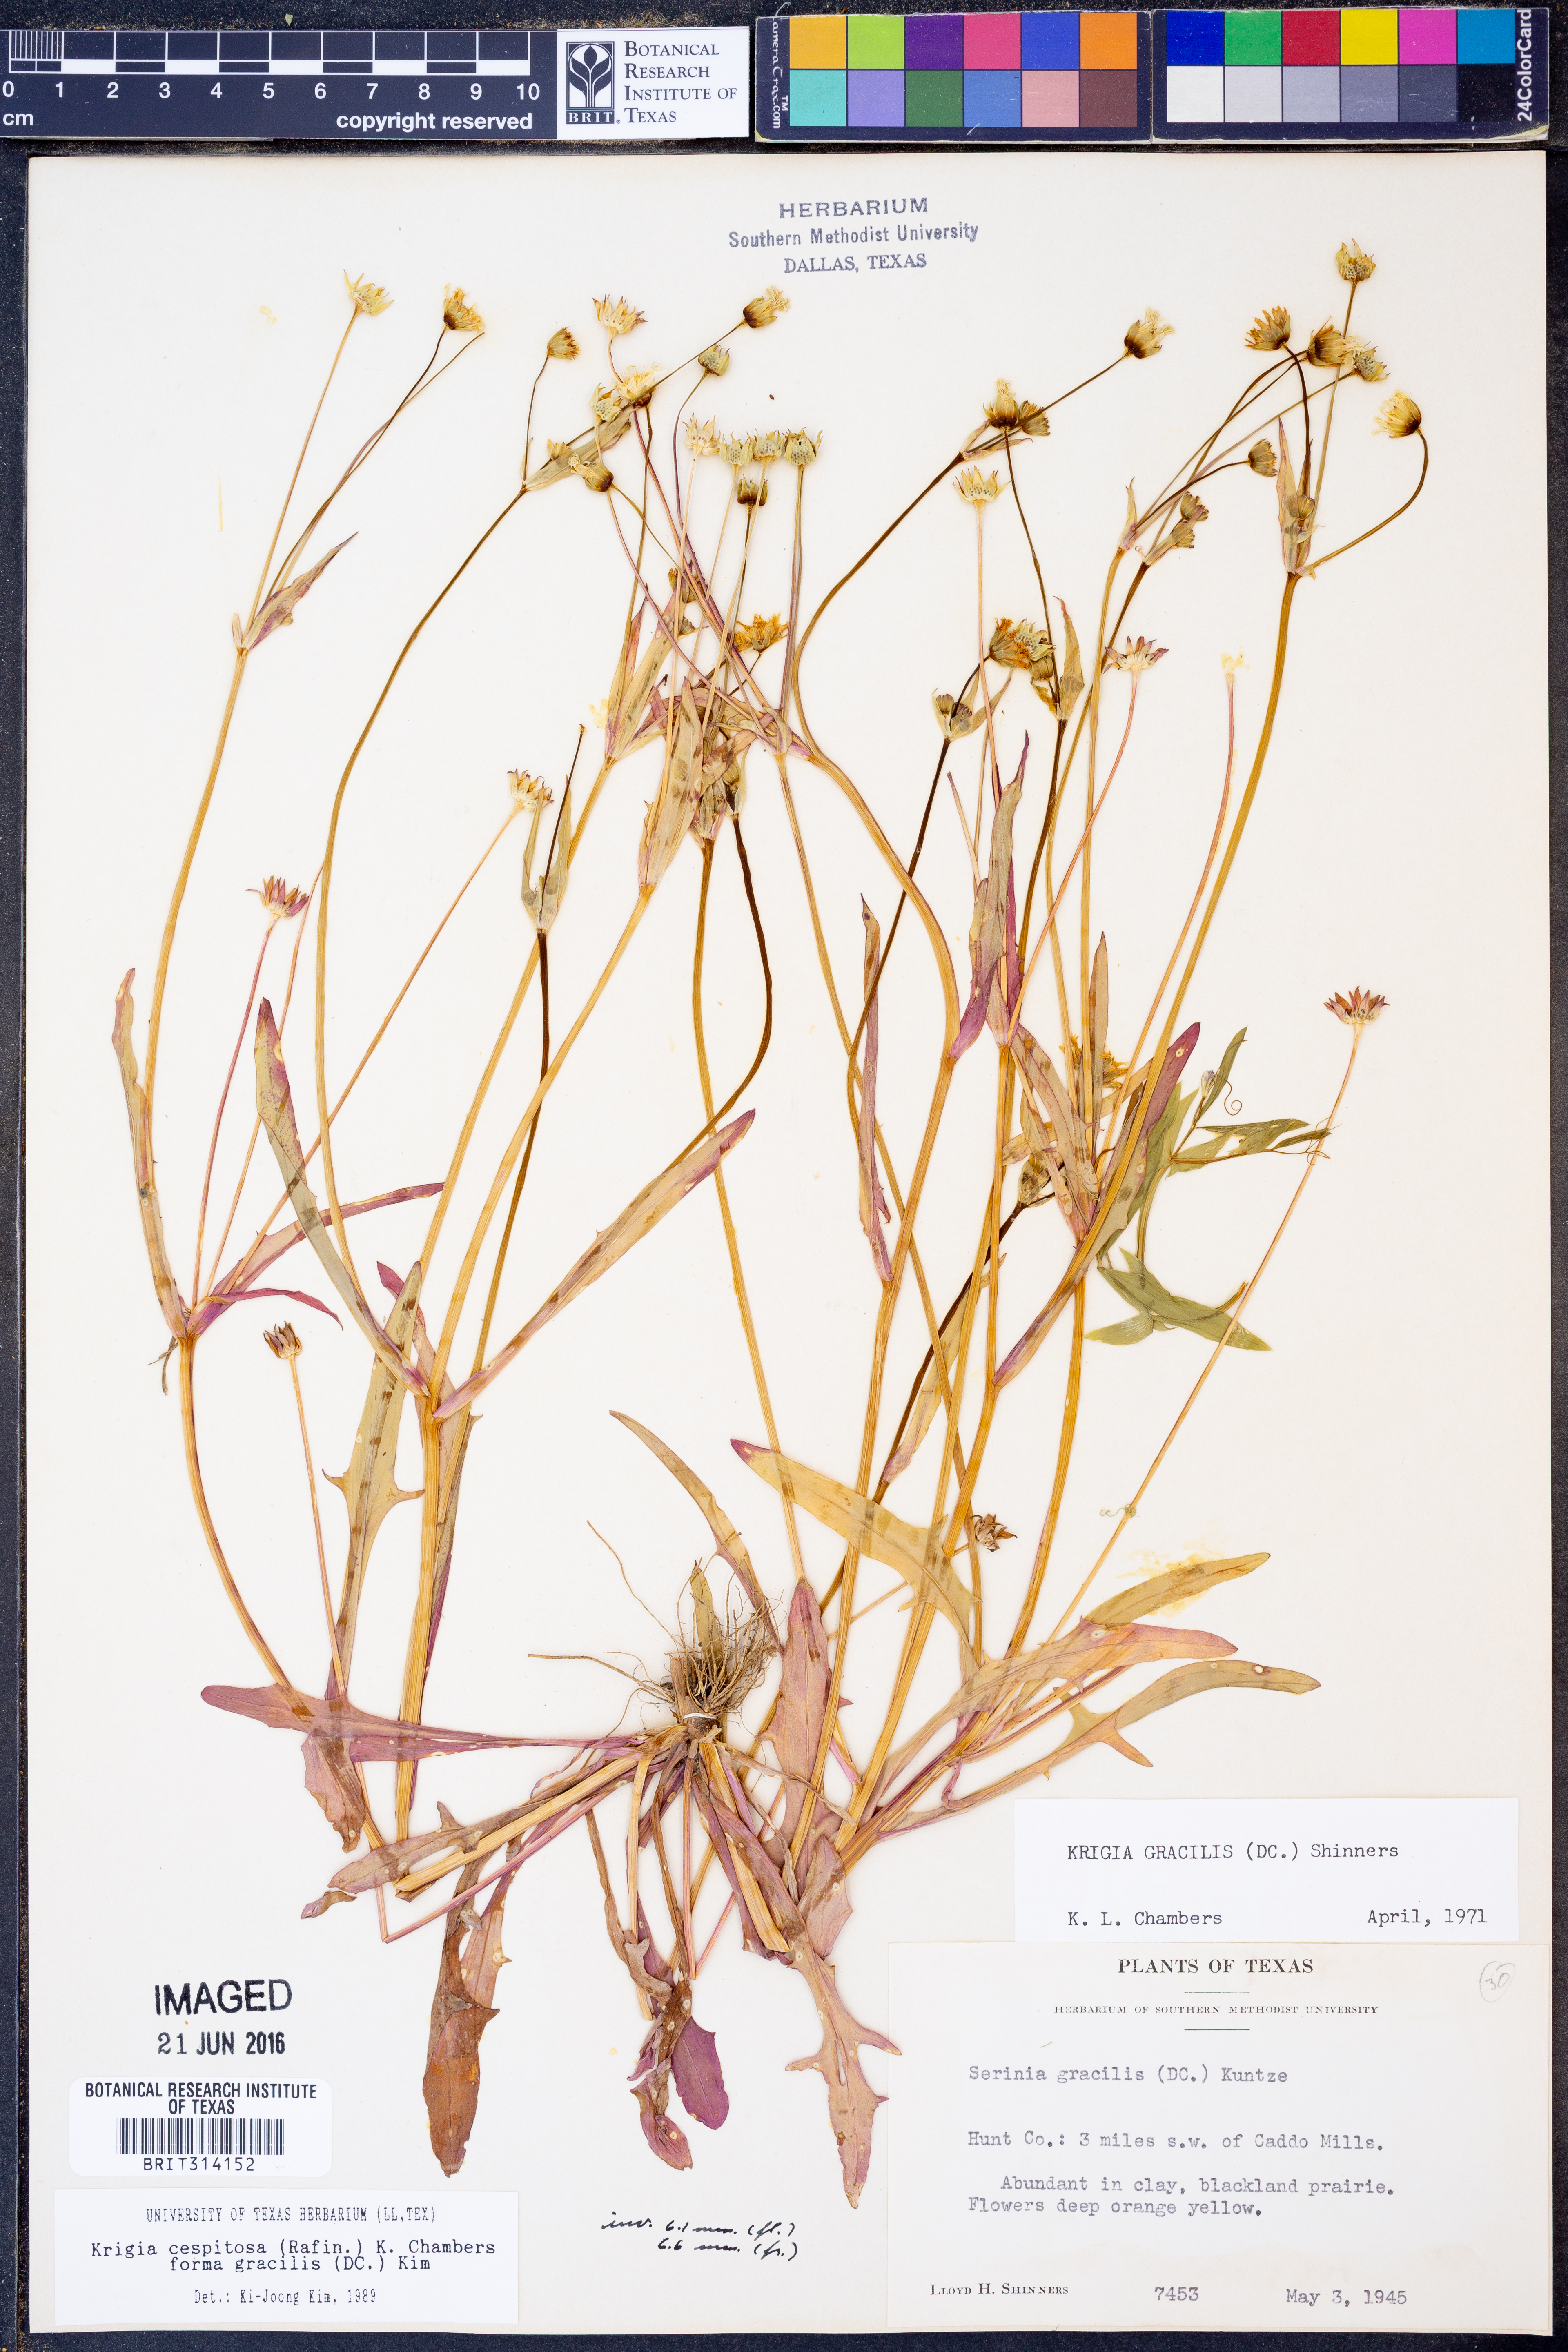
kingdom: Plantae
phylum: Tracheophyta
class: Magnoliopsida
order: Asterales
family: Asteraceae
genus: Krigia
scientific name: Krigia cespitosa
